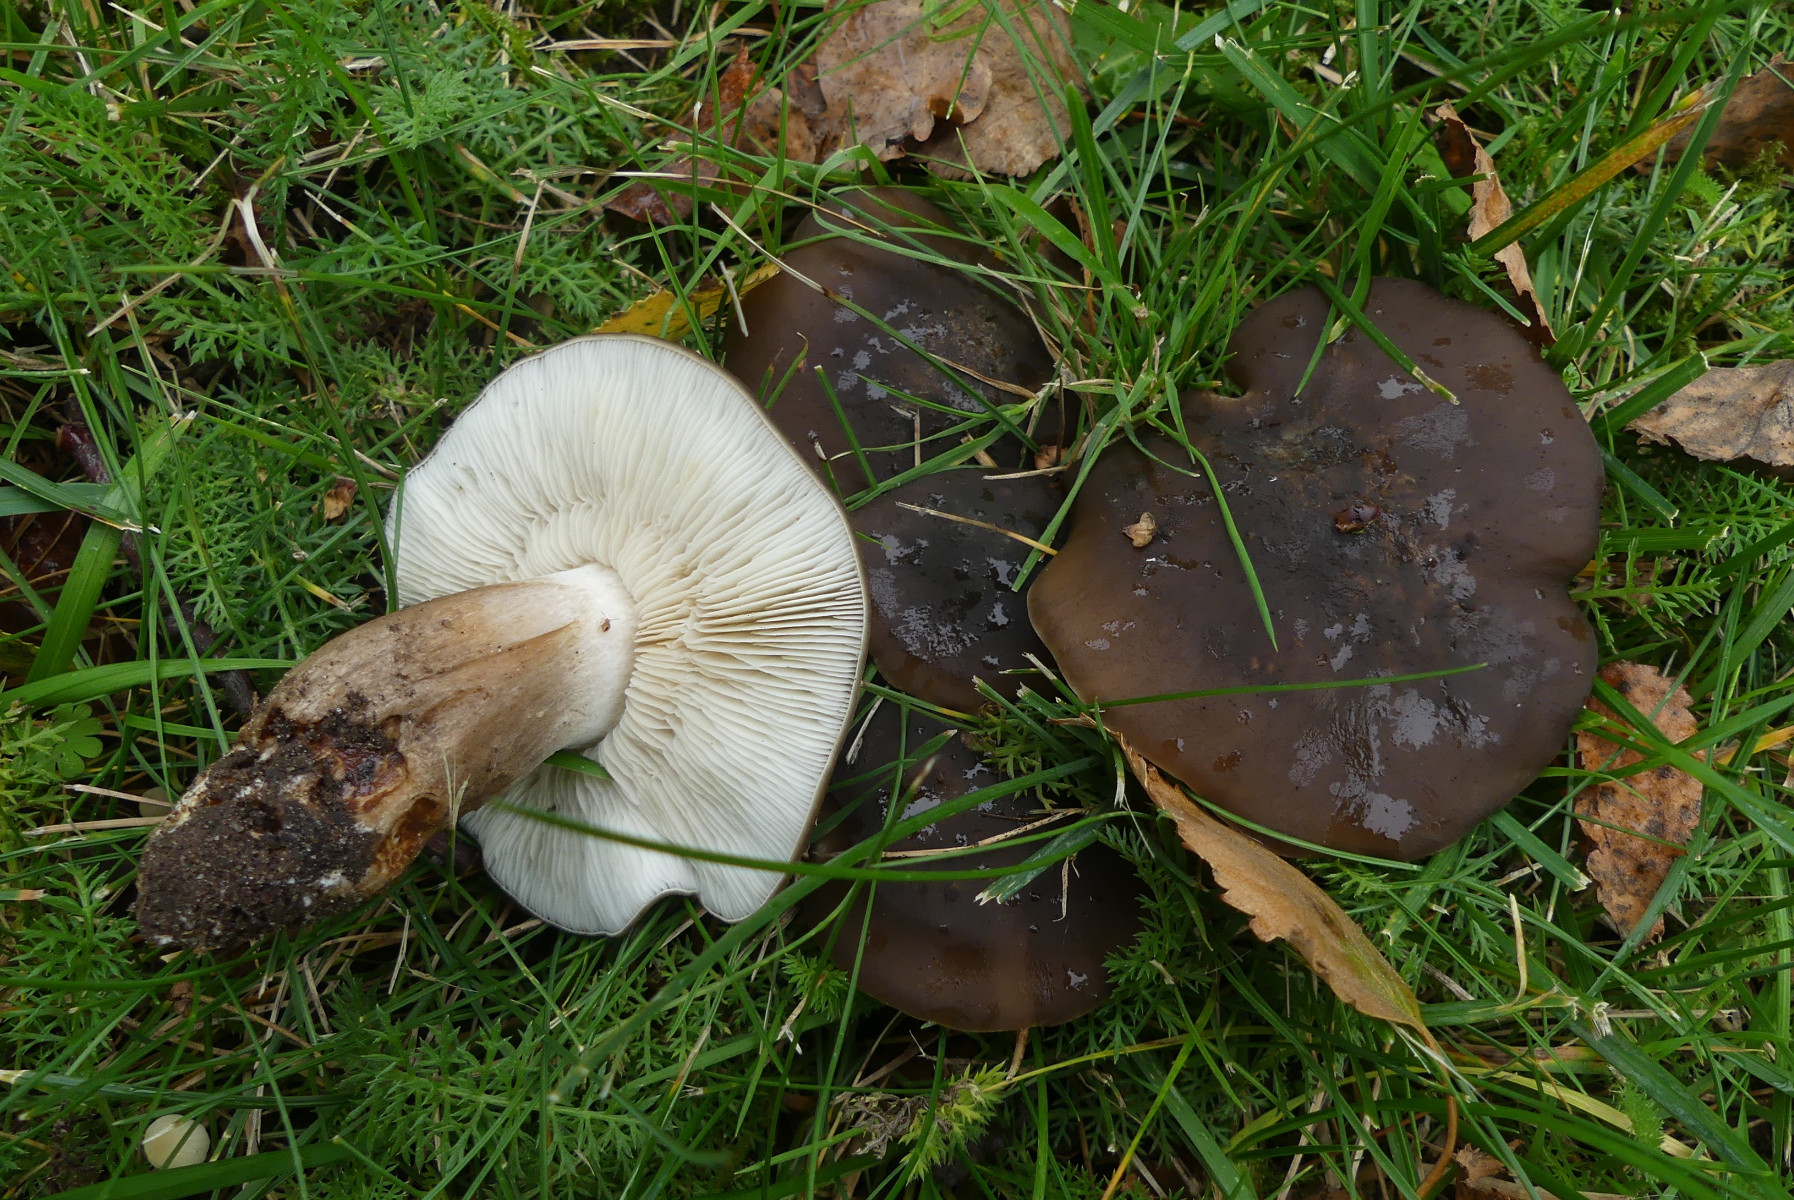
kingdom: Fungi
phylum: Basidiomycota
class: Agaricomycetes
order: Agaricales
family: Lyophyllaceae
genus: Lyophyllum
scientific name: Lyophyllum decastes
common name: Clustered domecap
